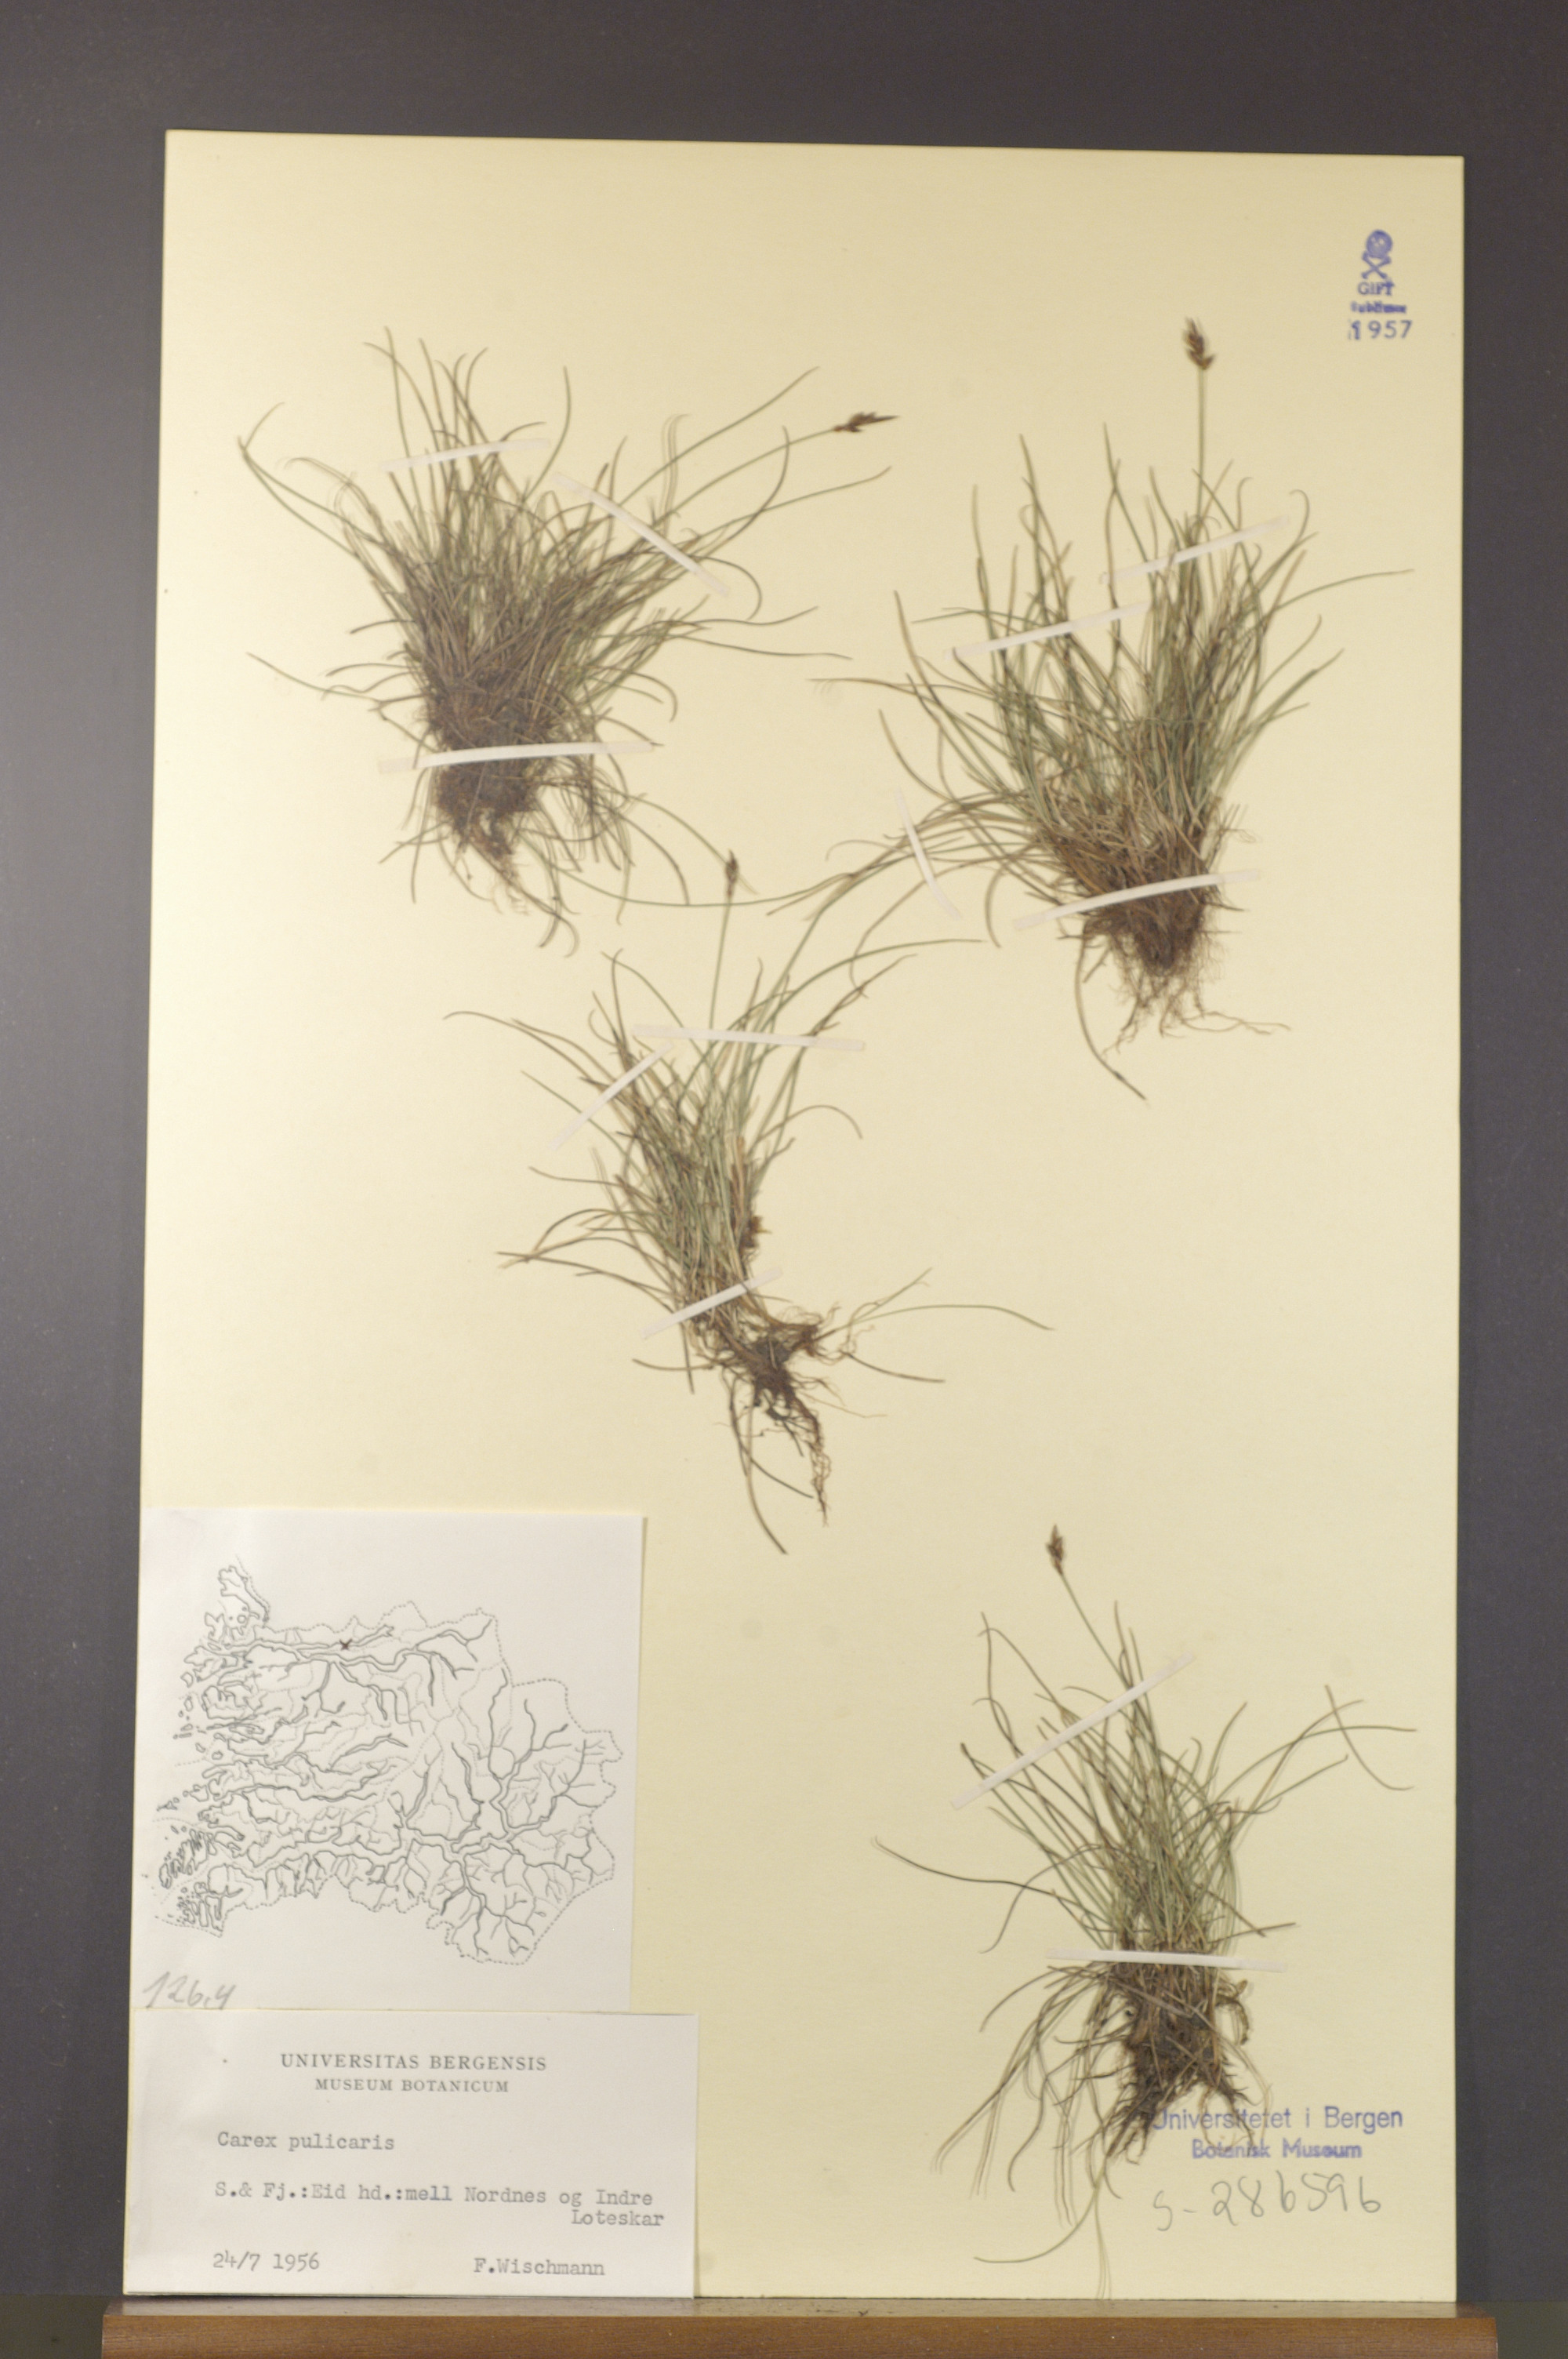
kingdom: Plantae
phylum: Tracheophyta
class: Liliopsida
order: Poales
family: Cyperaceae
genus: Carex
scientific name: Carex pulicaris
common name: Flea sedge
